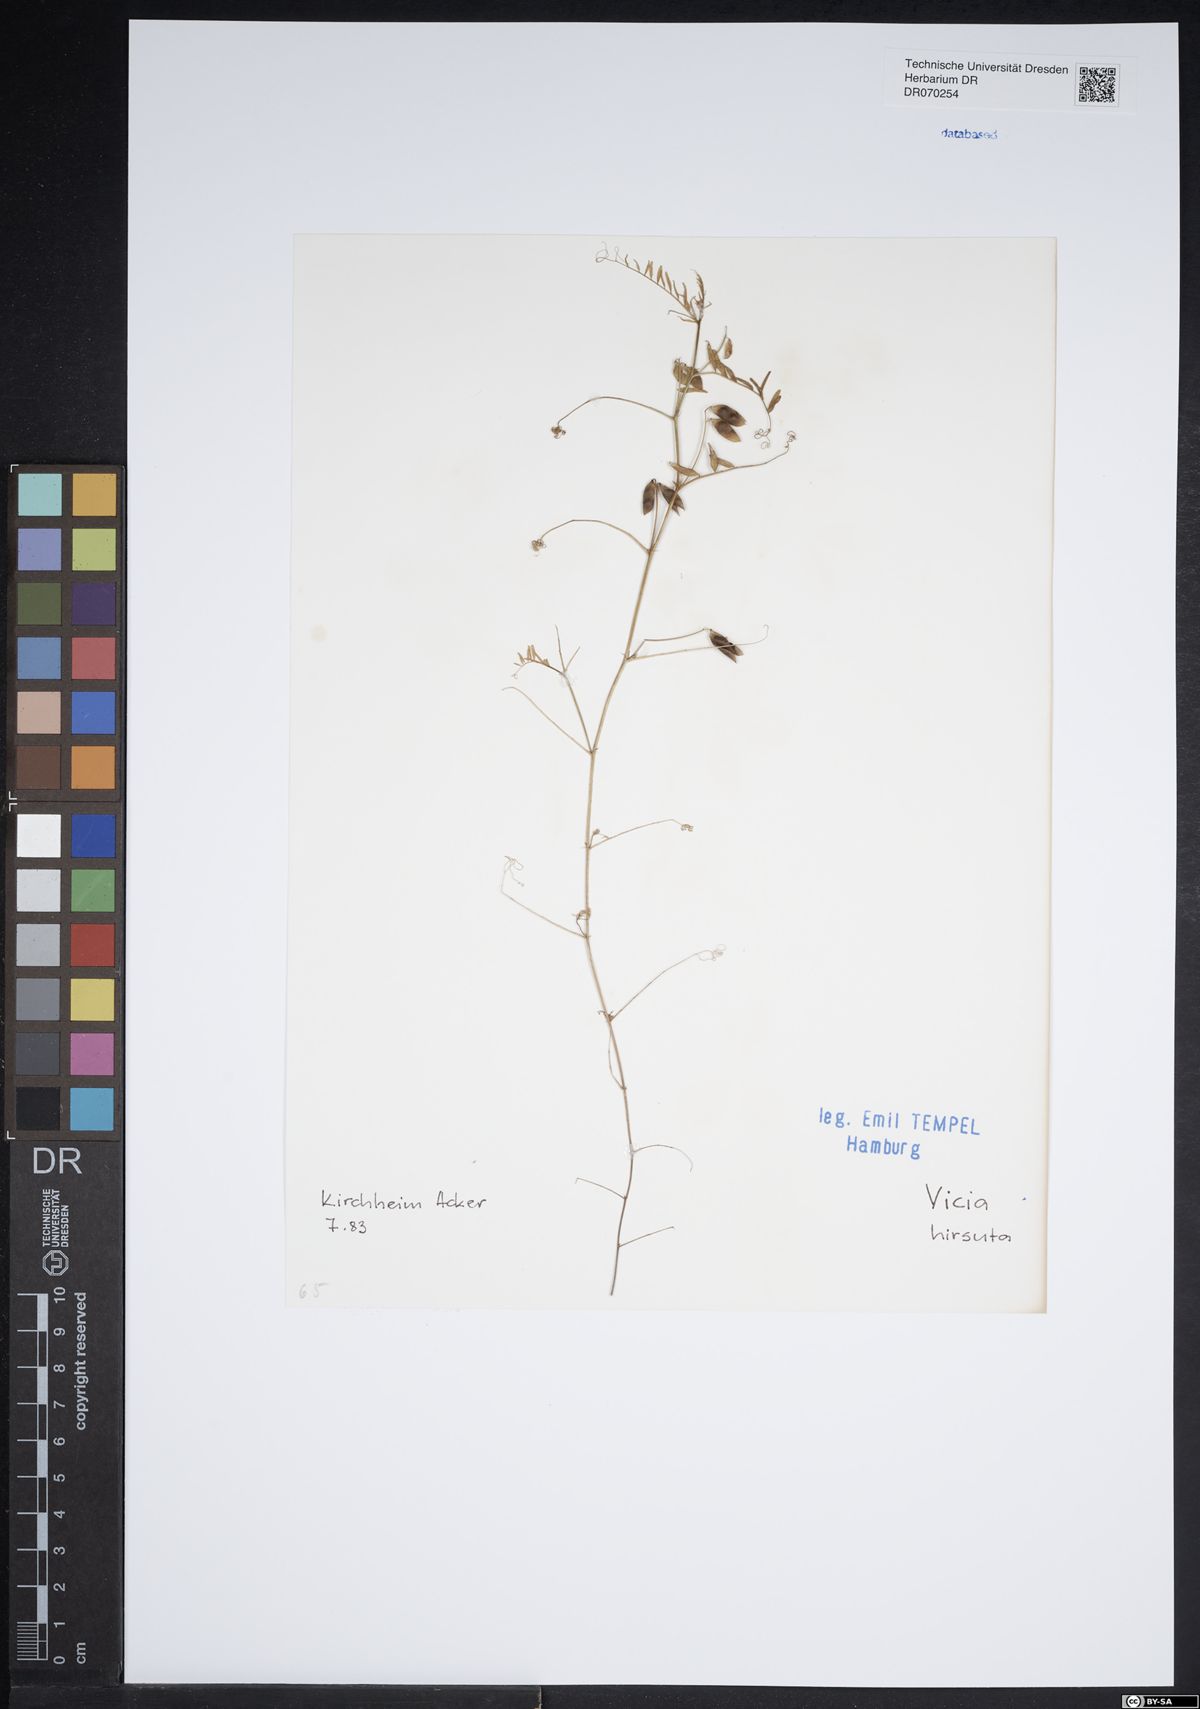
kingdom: Plantae
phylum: Tracheophyta
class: Magnoliopsida
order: Fabales
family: Fabaceae
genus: Vicia
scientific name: Vicia hirsuta
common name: Tiny vetch
